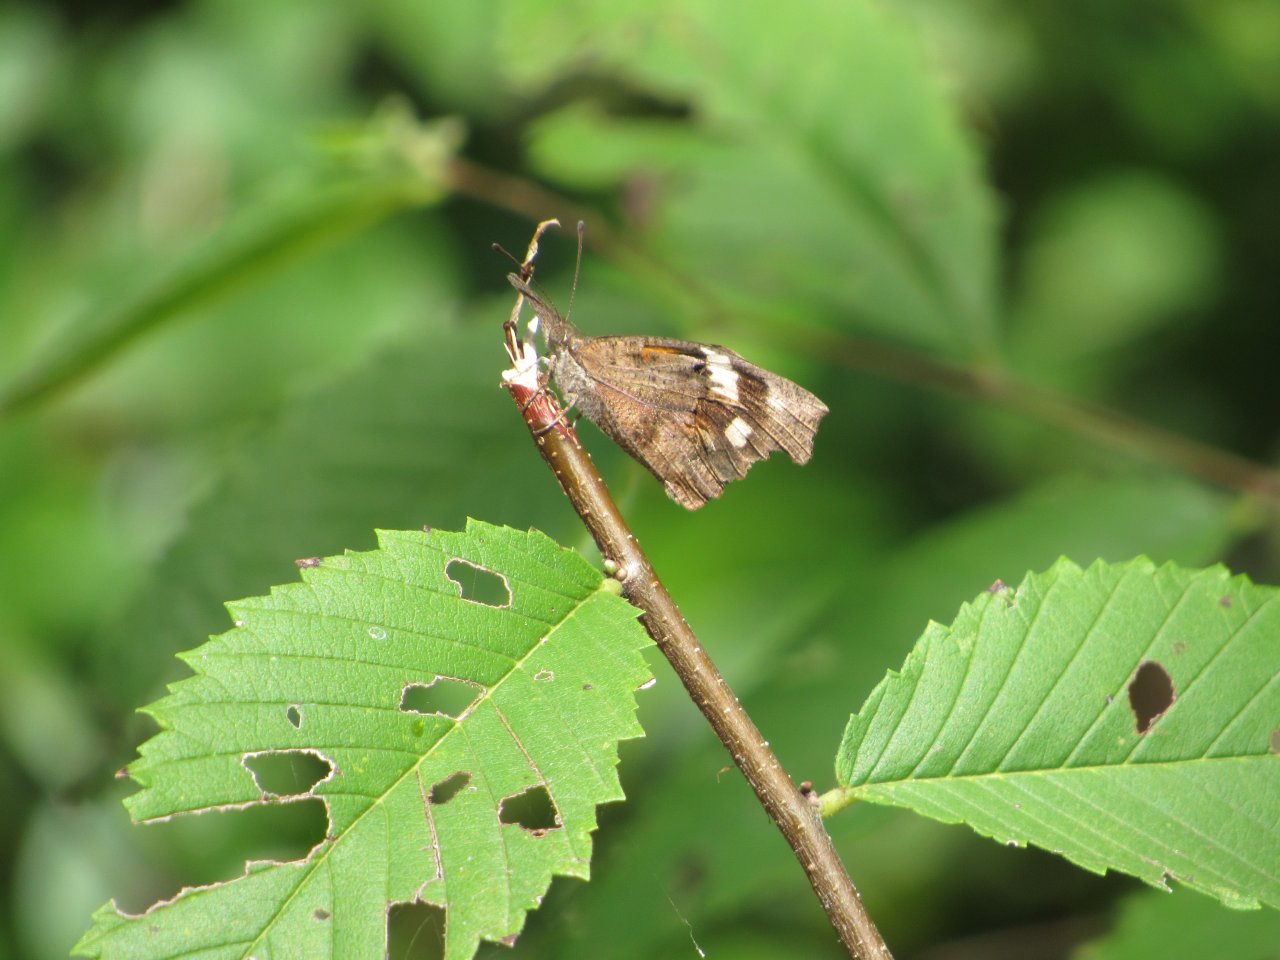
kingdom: Animalia
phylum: Arthropoda
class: Insecta
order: Lepidoptera
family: Nymphalidae
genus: Libytheana
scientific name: Libytheana carinenta
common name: American Snout
